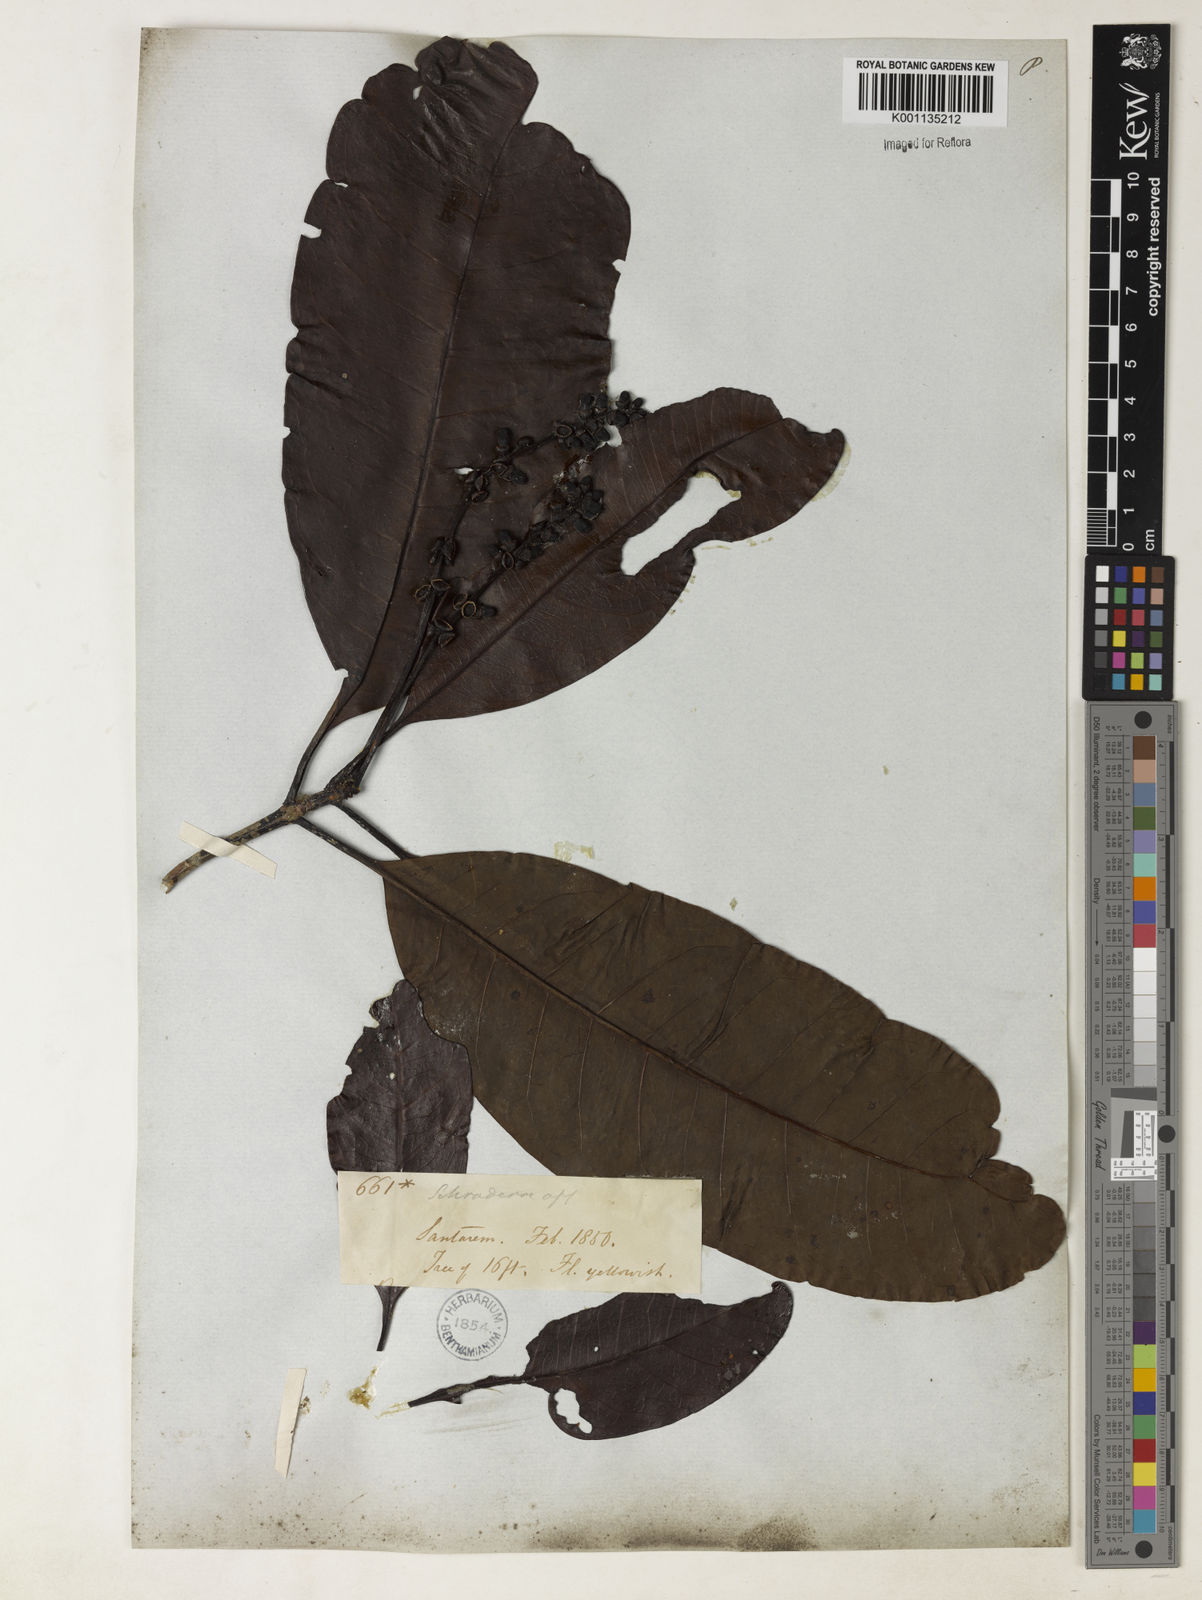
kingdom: Plantae
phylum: Tracheophyta
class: Magnoliopsida
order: Gentianales
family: Rubiaceae
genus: Stachyarrhena
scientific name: Stachyarrhena spicata
